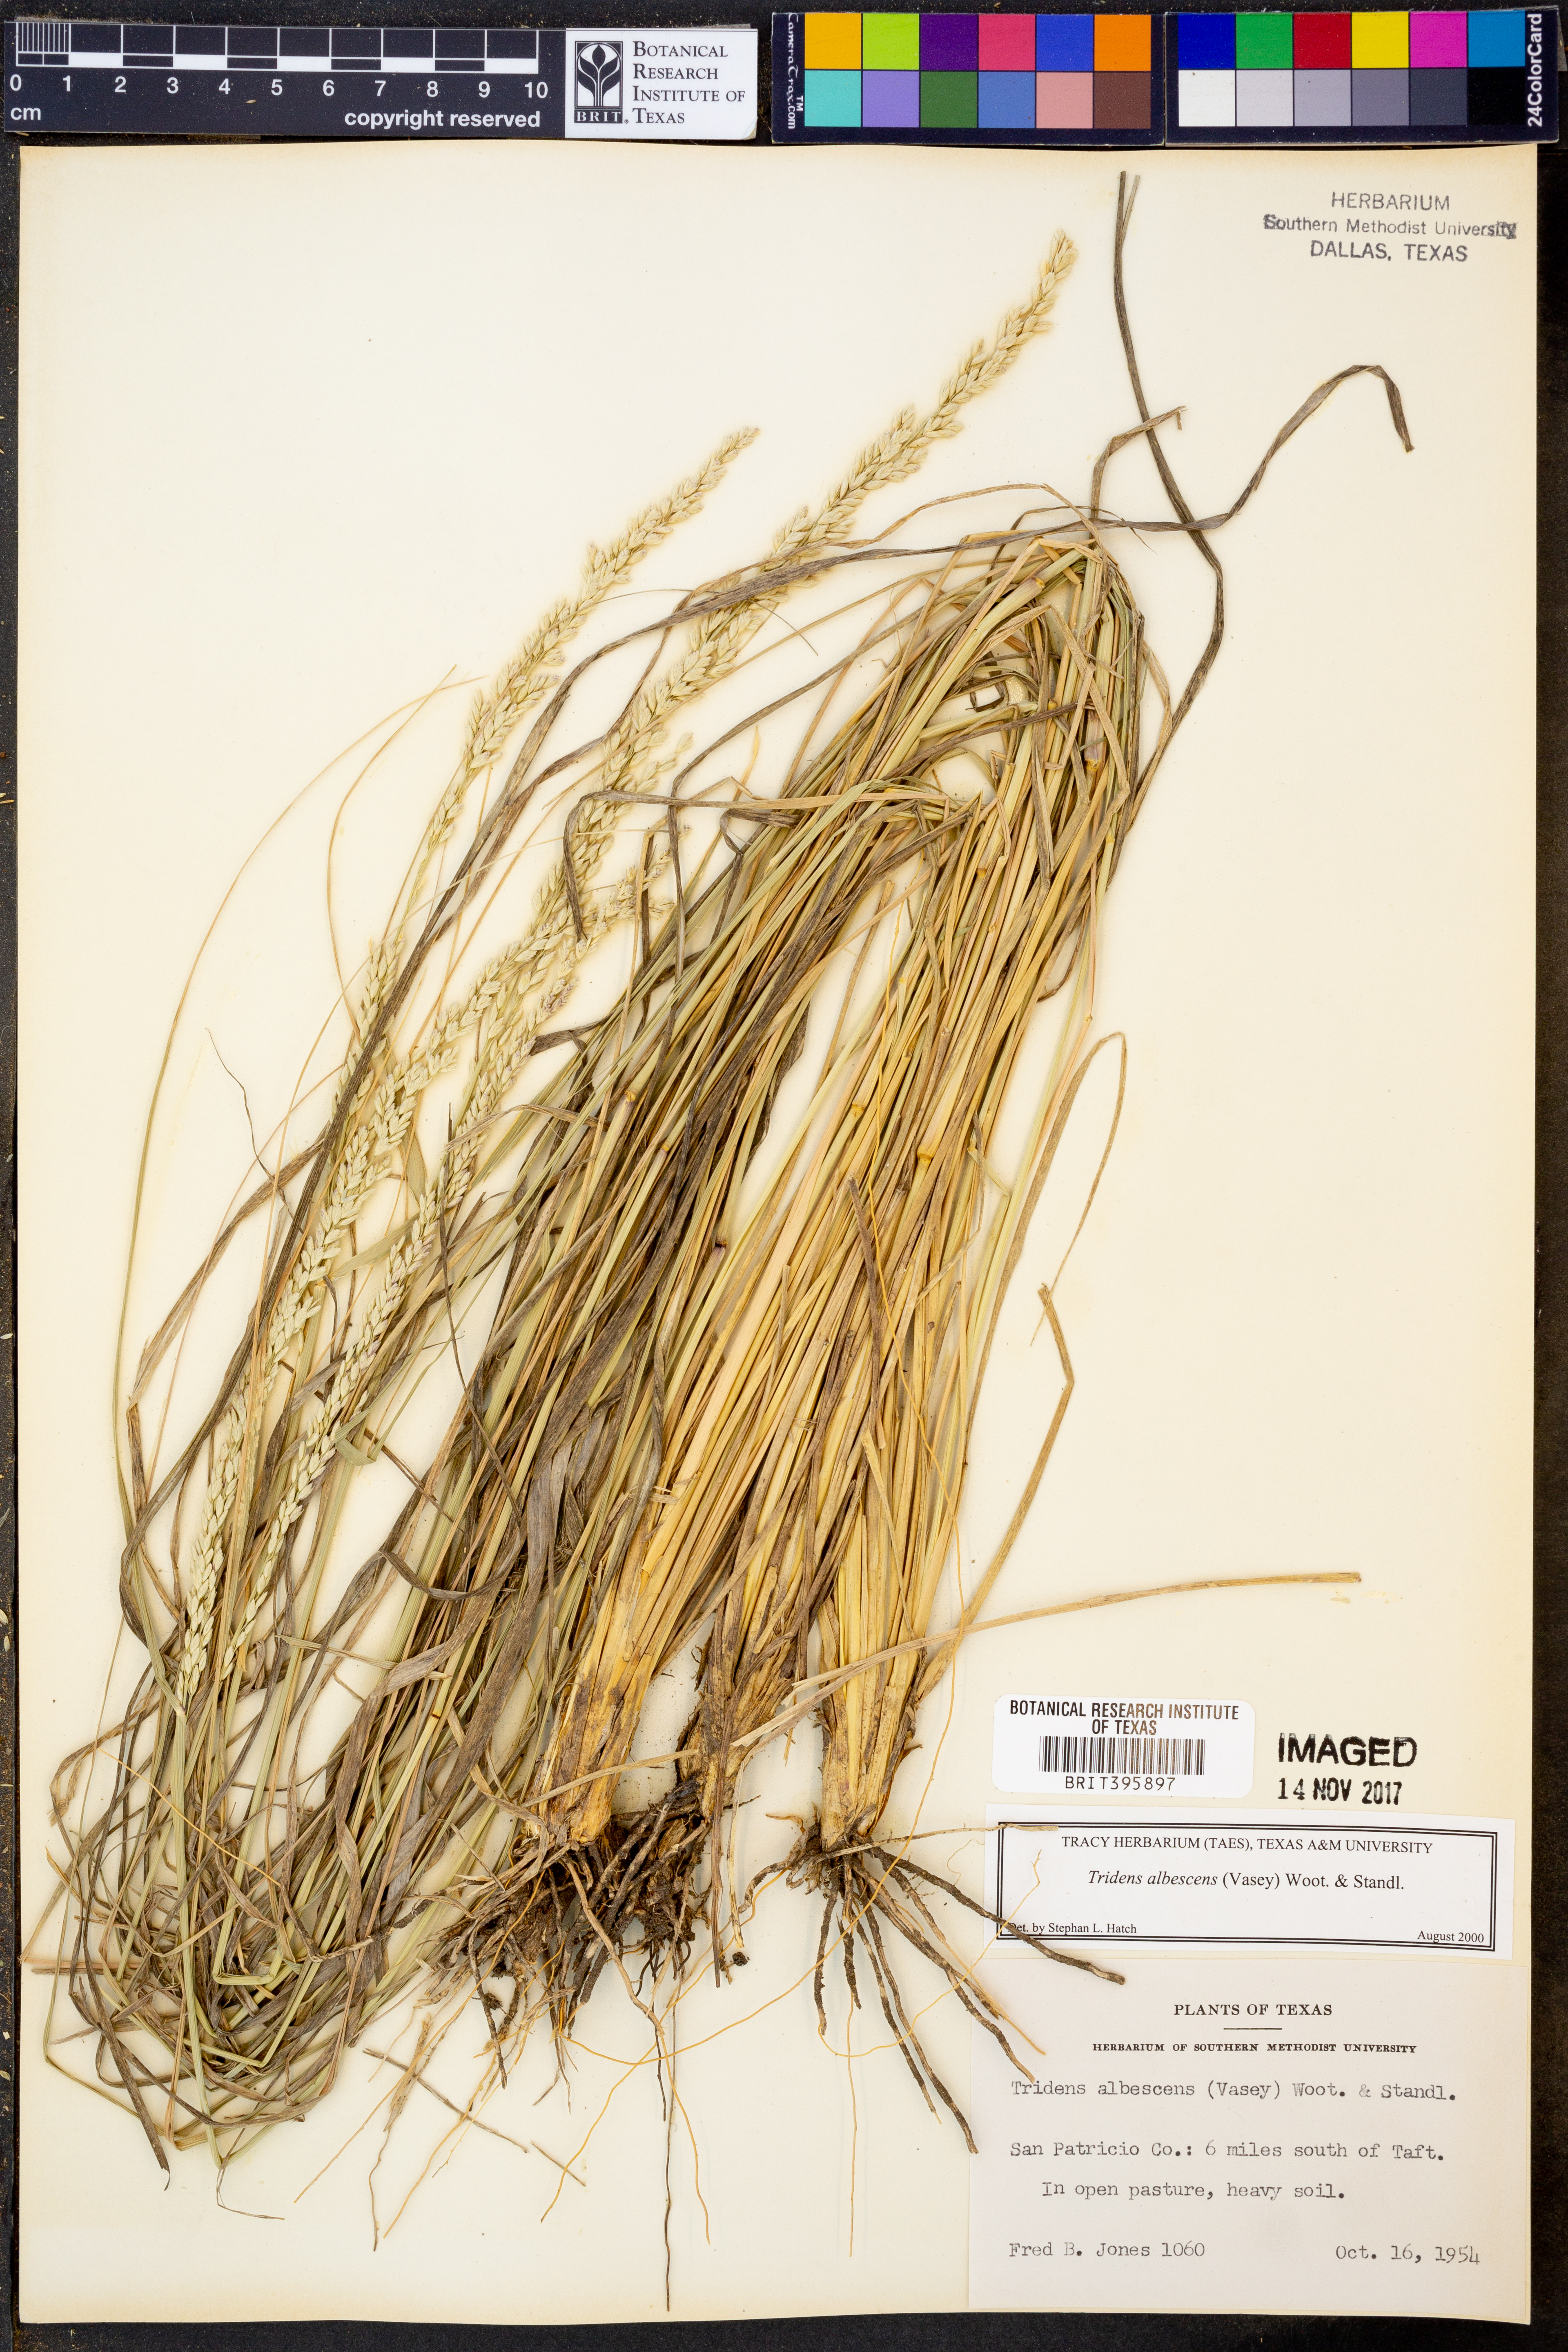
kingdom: Plantae
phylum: Tracheophyta
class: Liliopsida
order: Poales
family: Poaceae
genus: Tridens
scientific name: Tridens albescens
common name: White tridens
